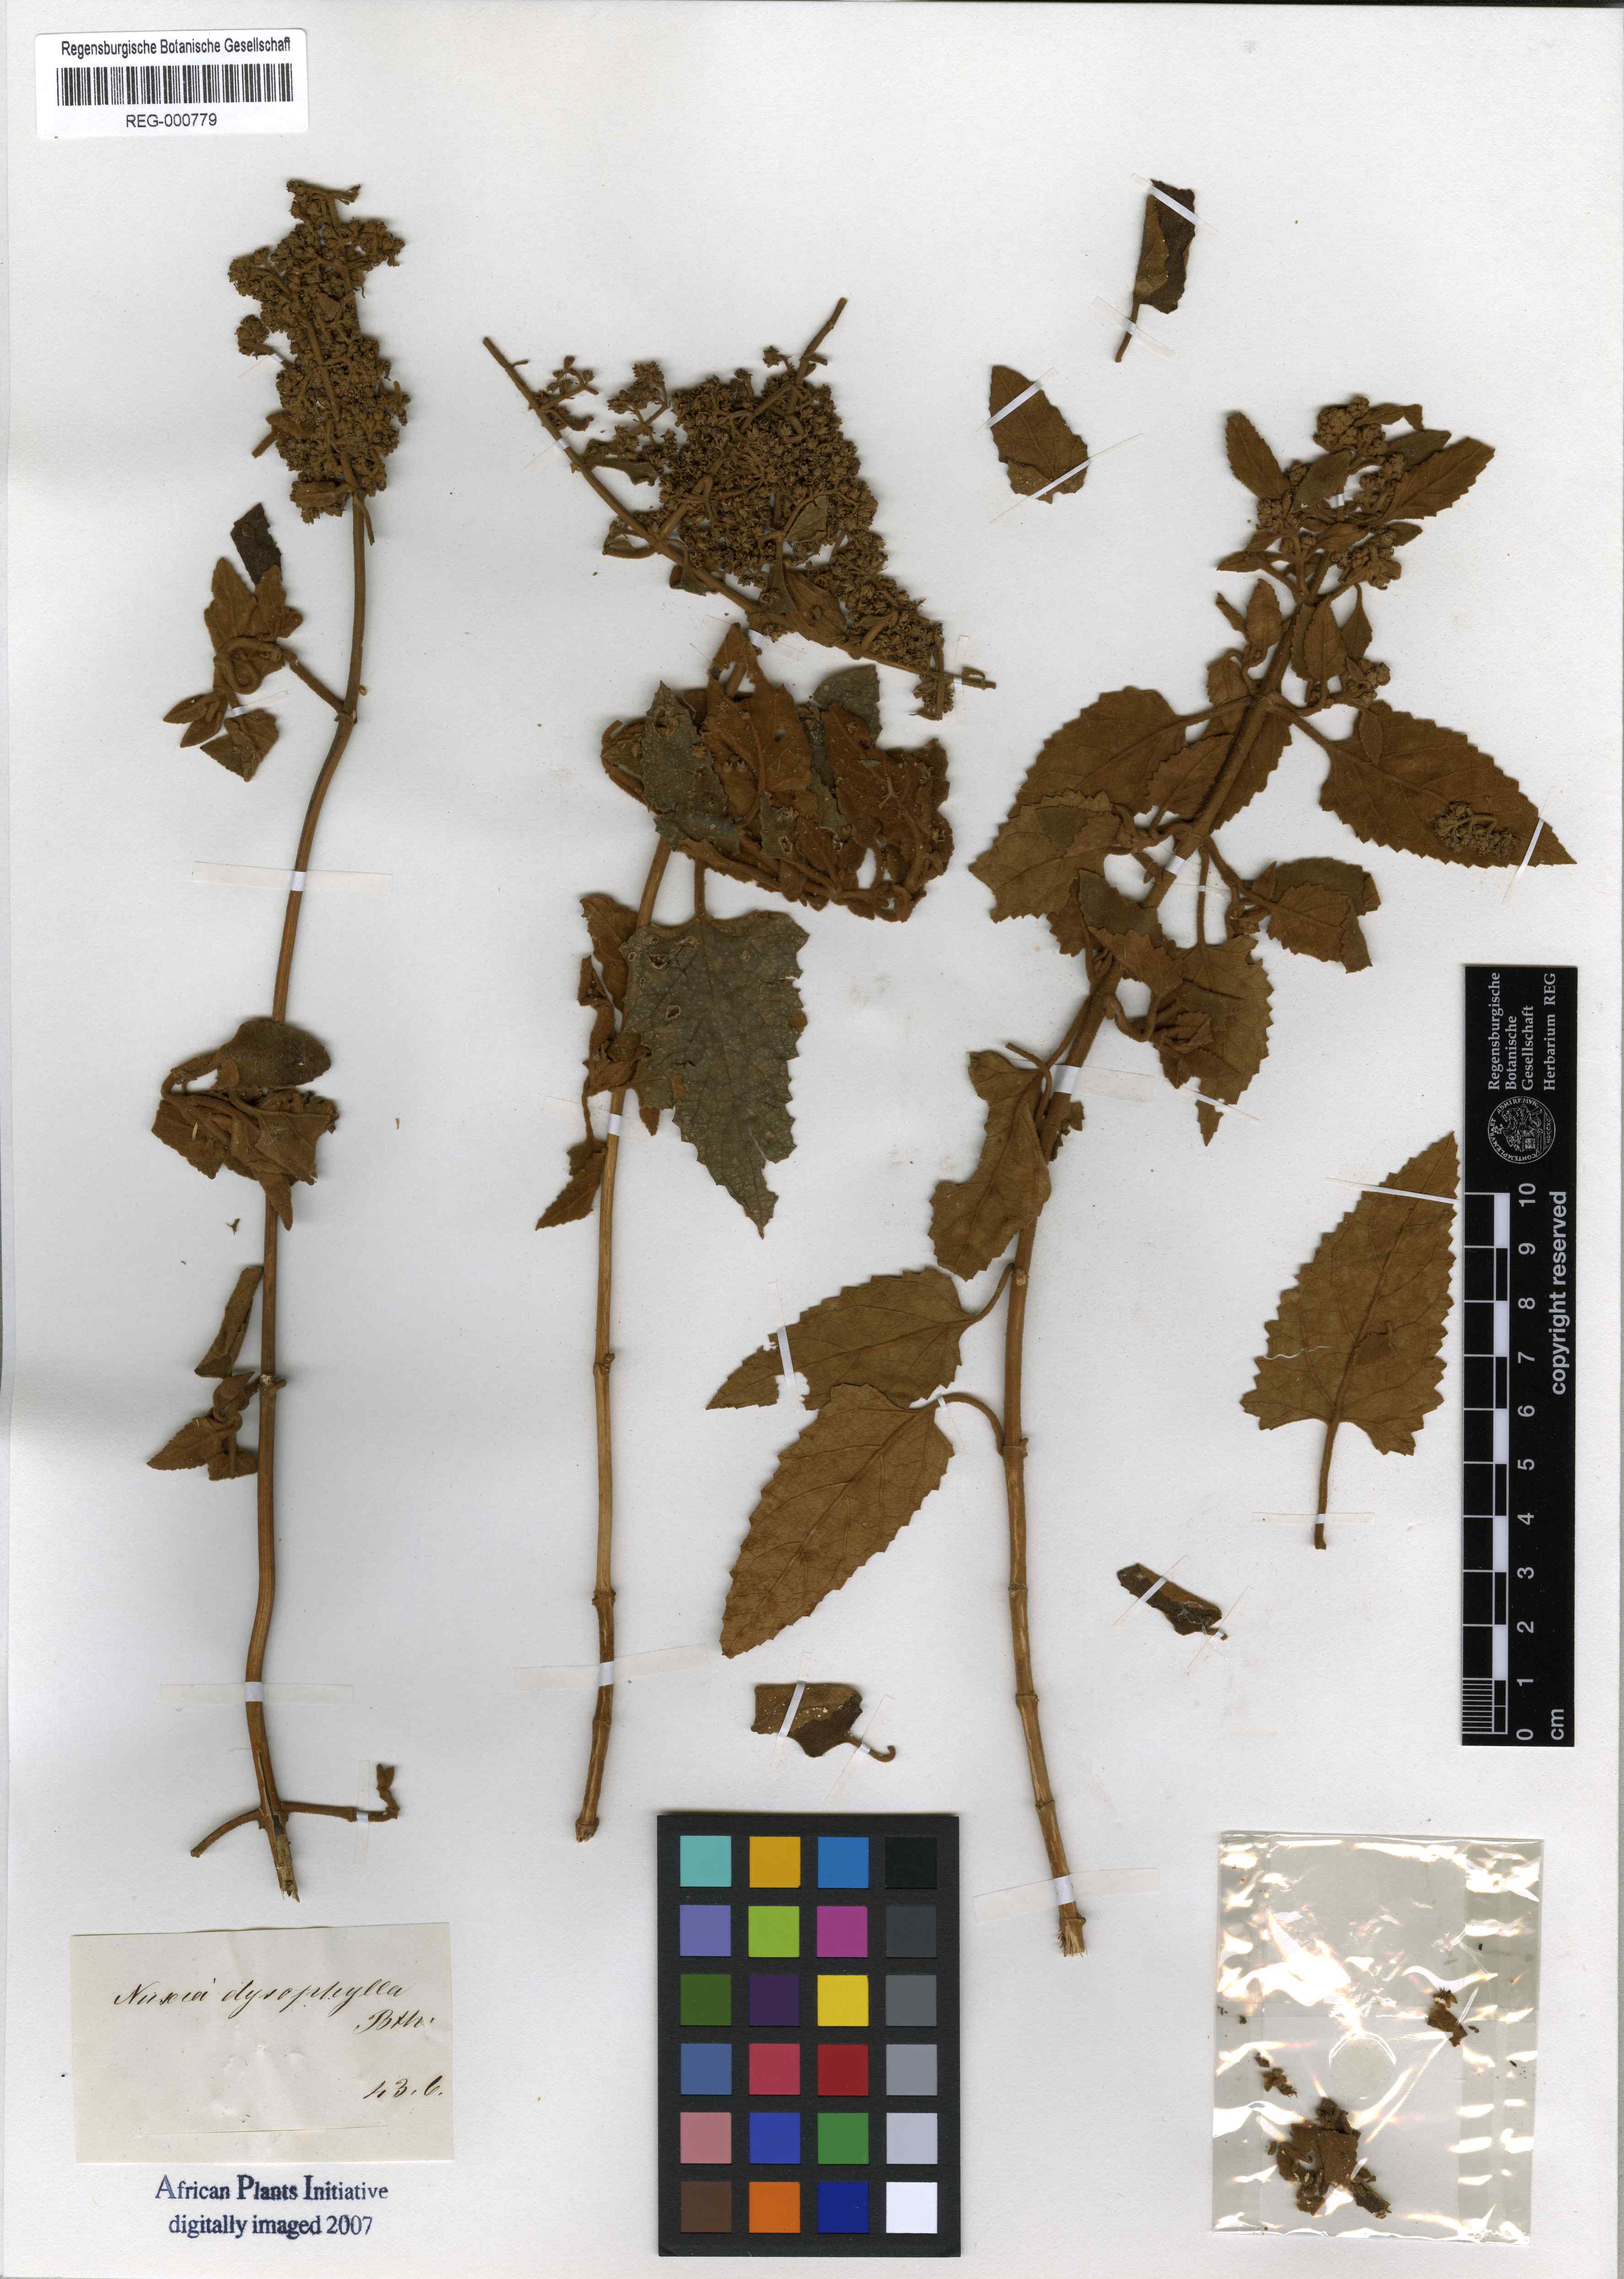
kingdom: Plantae
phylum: Tracheophyta
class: Magnoliopsida
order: Lamiales
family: Scrophulariaceae
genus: Buddleja
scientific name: Buddleja dysophylla
